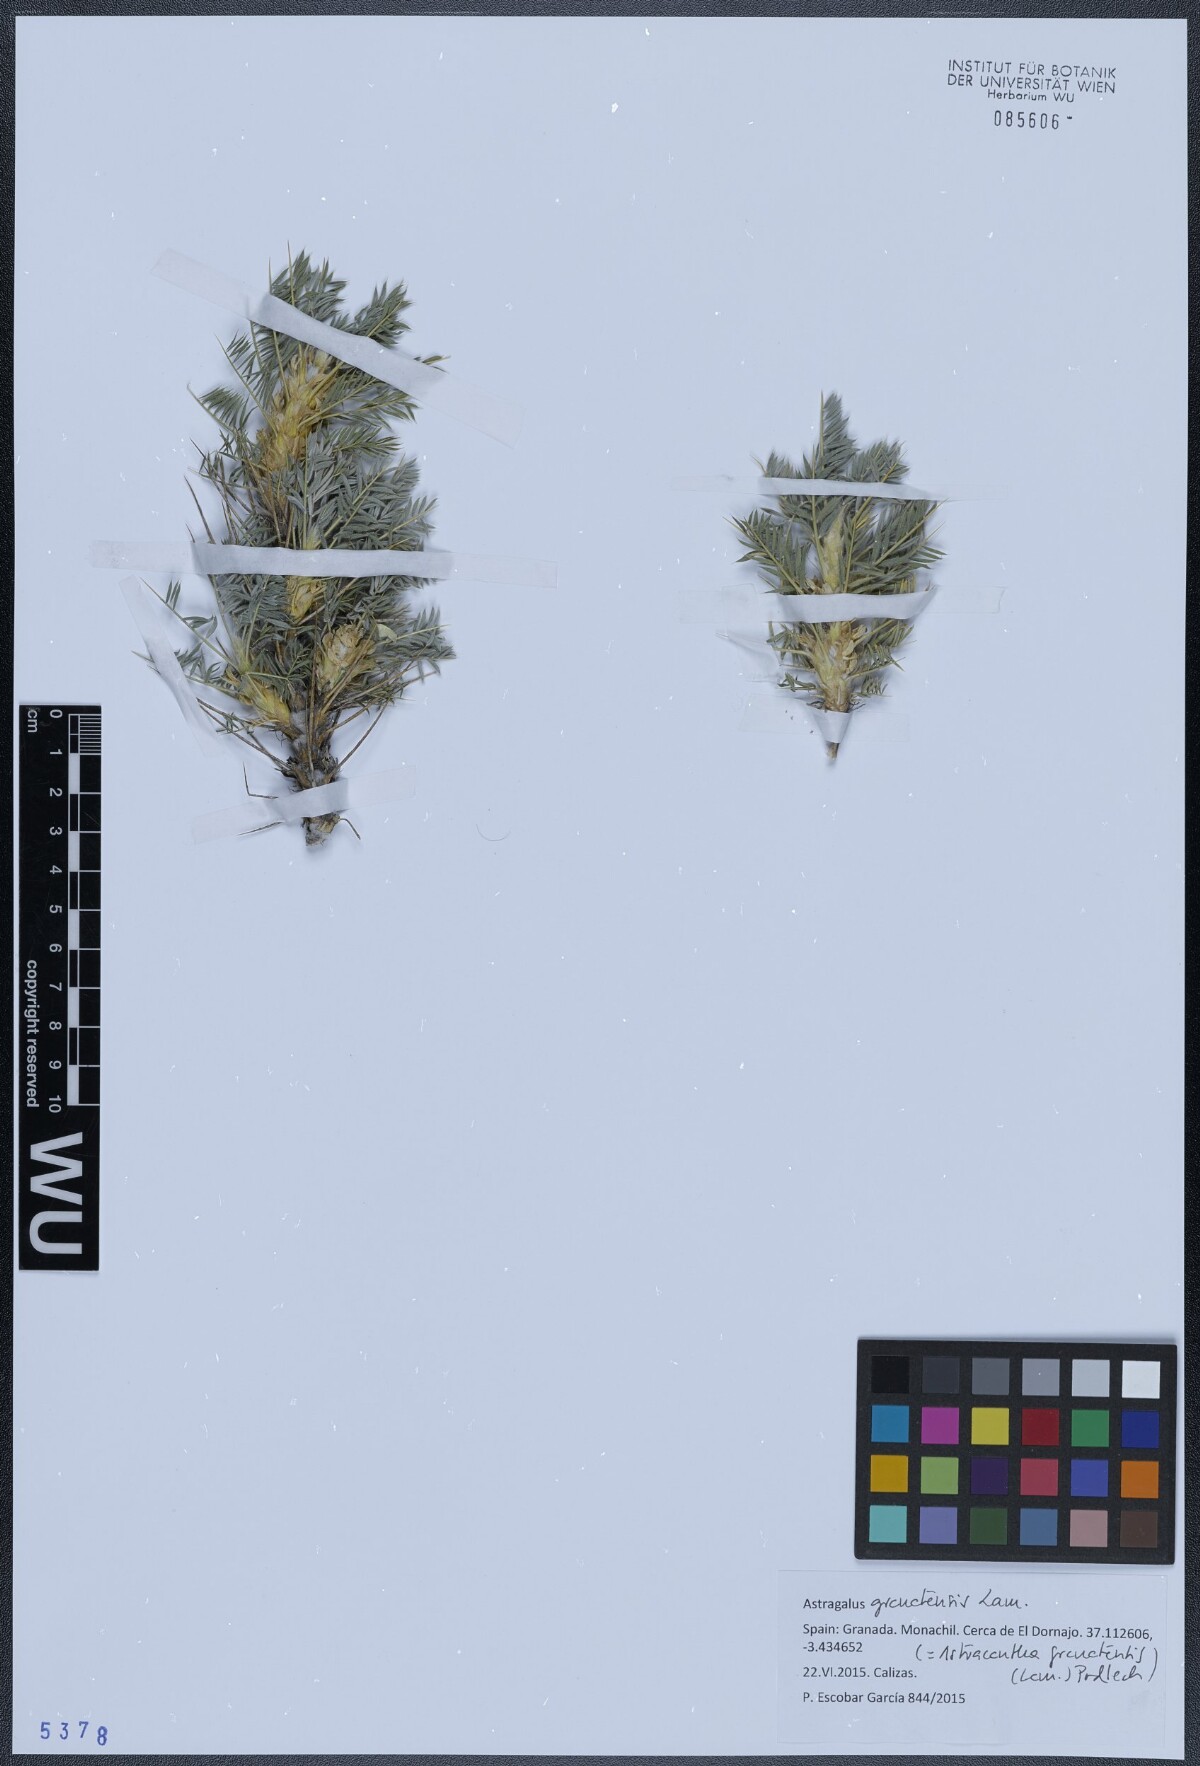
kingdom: Plantae
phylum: Tracheophyta
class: Magnoliopsida
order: Fabales
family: Fabaceae
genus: Astragalus
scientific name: Astragalus granatensis
